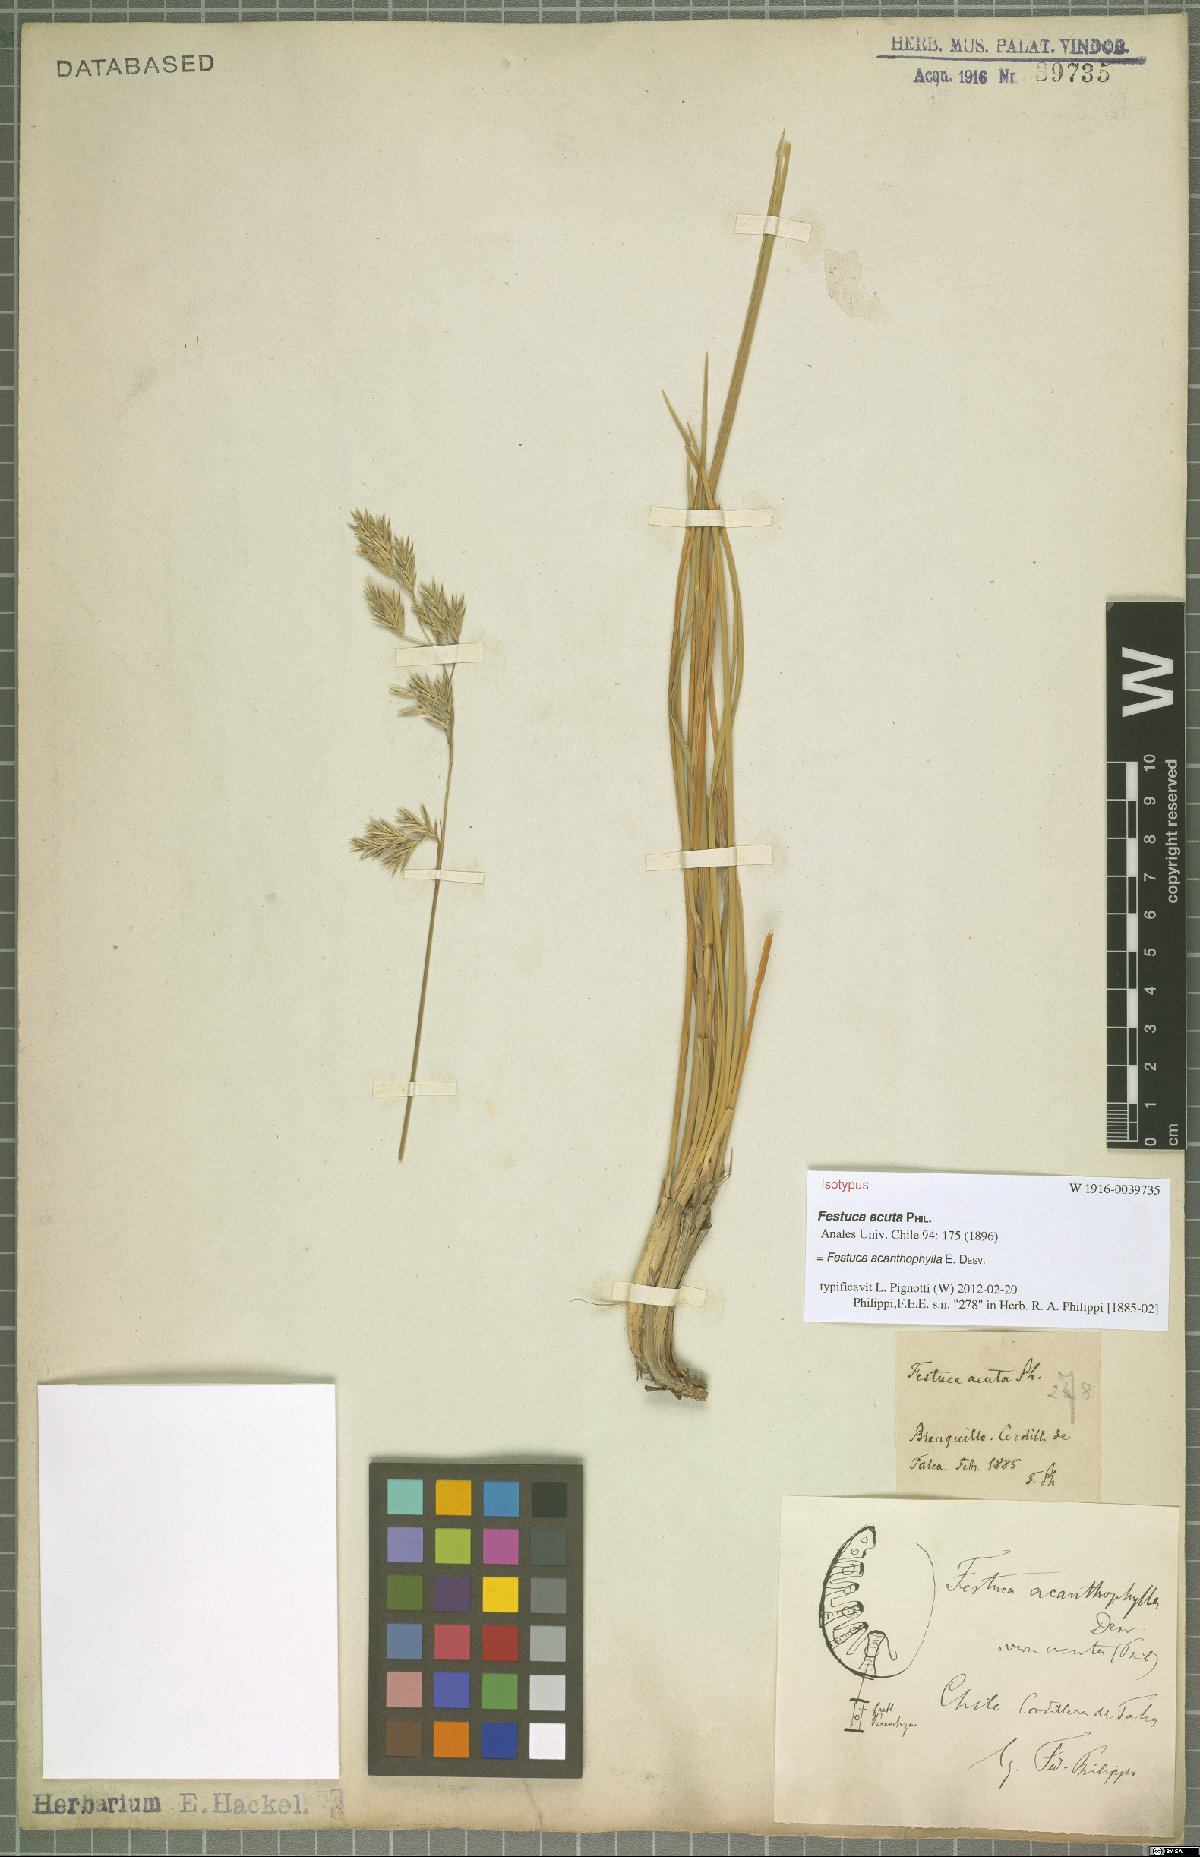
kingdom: Plantae
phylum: Tracheophyta
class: Liliopsida
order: Poales
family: Poaceae
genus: Festuca
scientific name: Festuca acanthophylla
